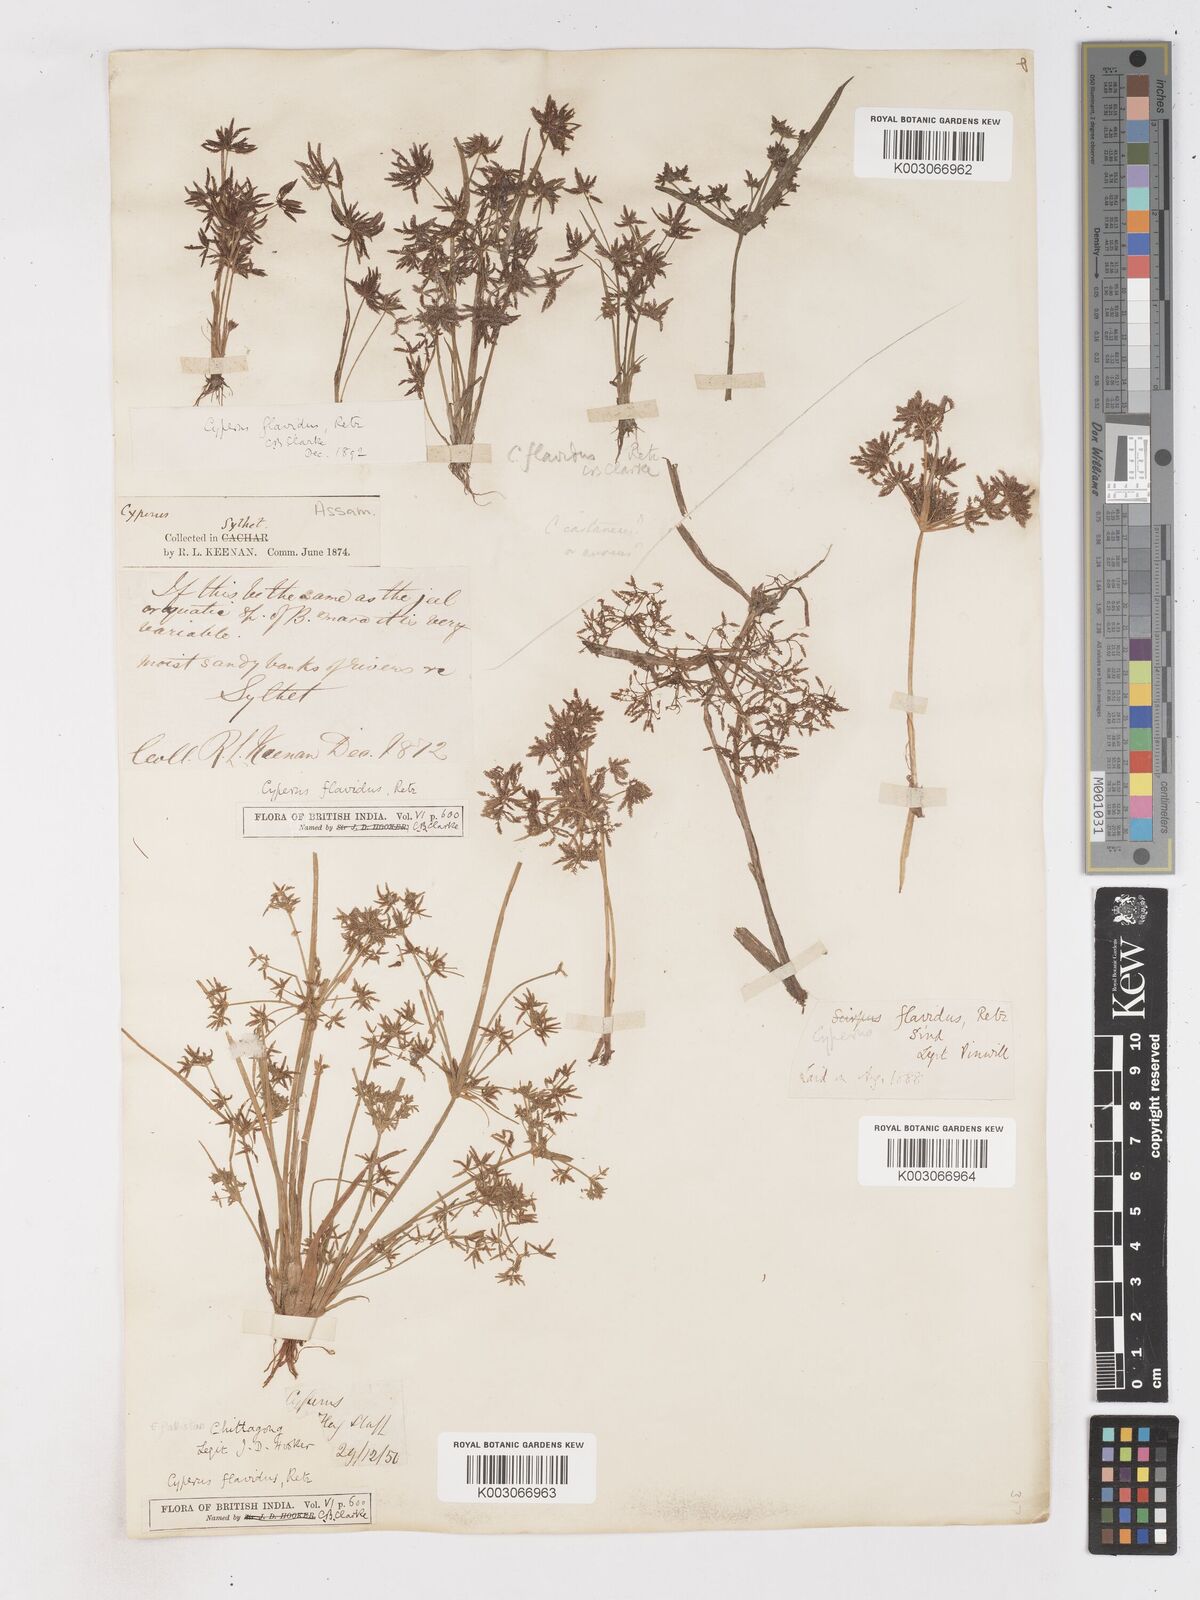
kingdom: Plantae
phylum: Tracheophyta
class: Liliopsida
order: Poales
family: Cyperaceae
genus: Cyperus
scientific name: Cyperus tenuispica
